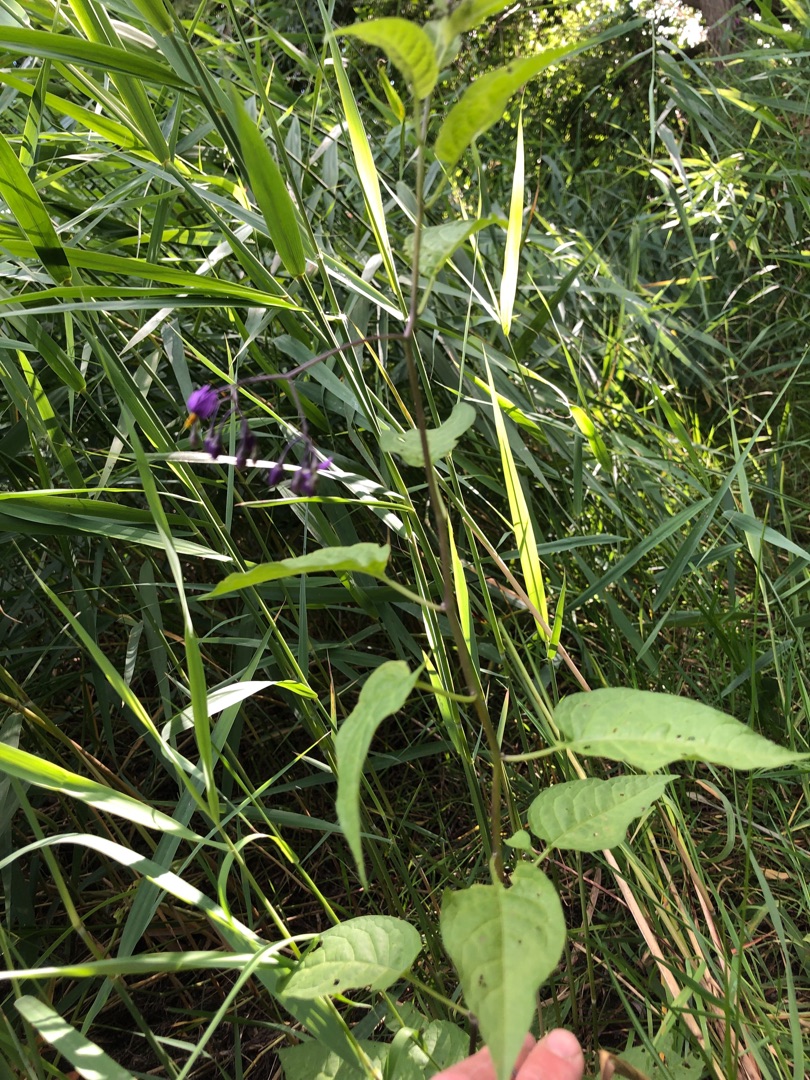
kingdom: Plantae
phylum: Tracheophyta
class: Magnoliopsida
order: Solanales
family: Solanaceae
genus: Solanum
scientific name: Solanum dulcamara
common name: Bittersød natskygge
